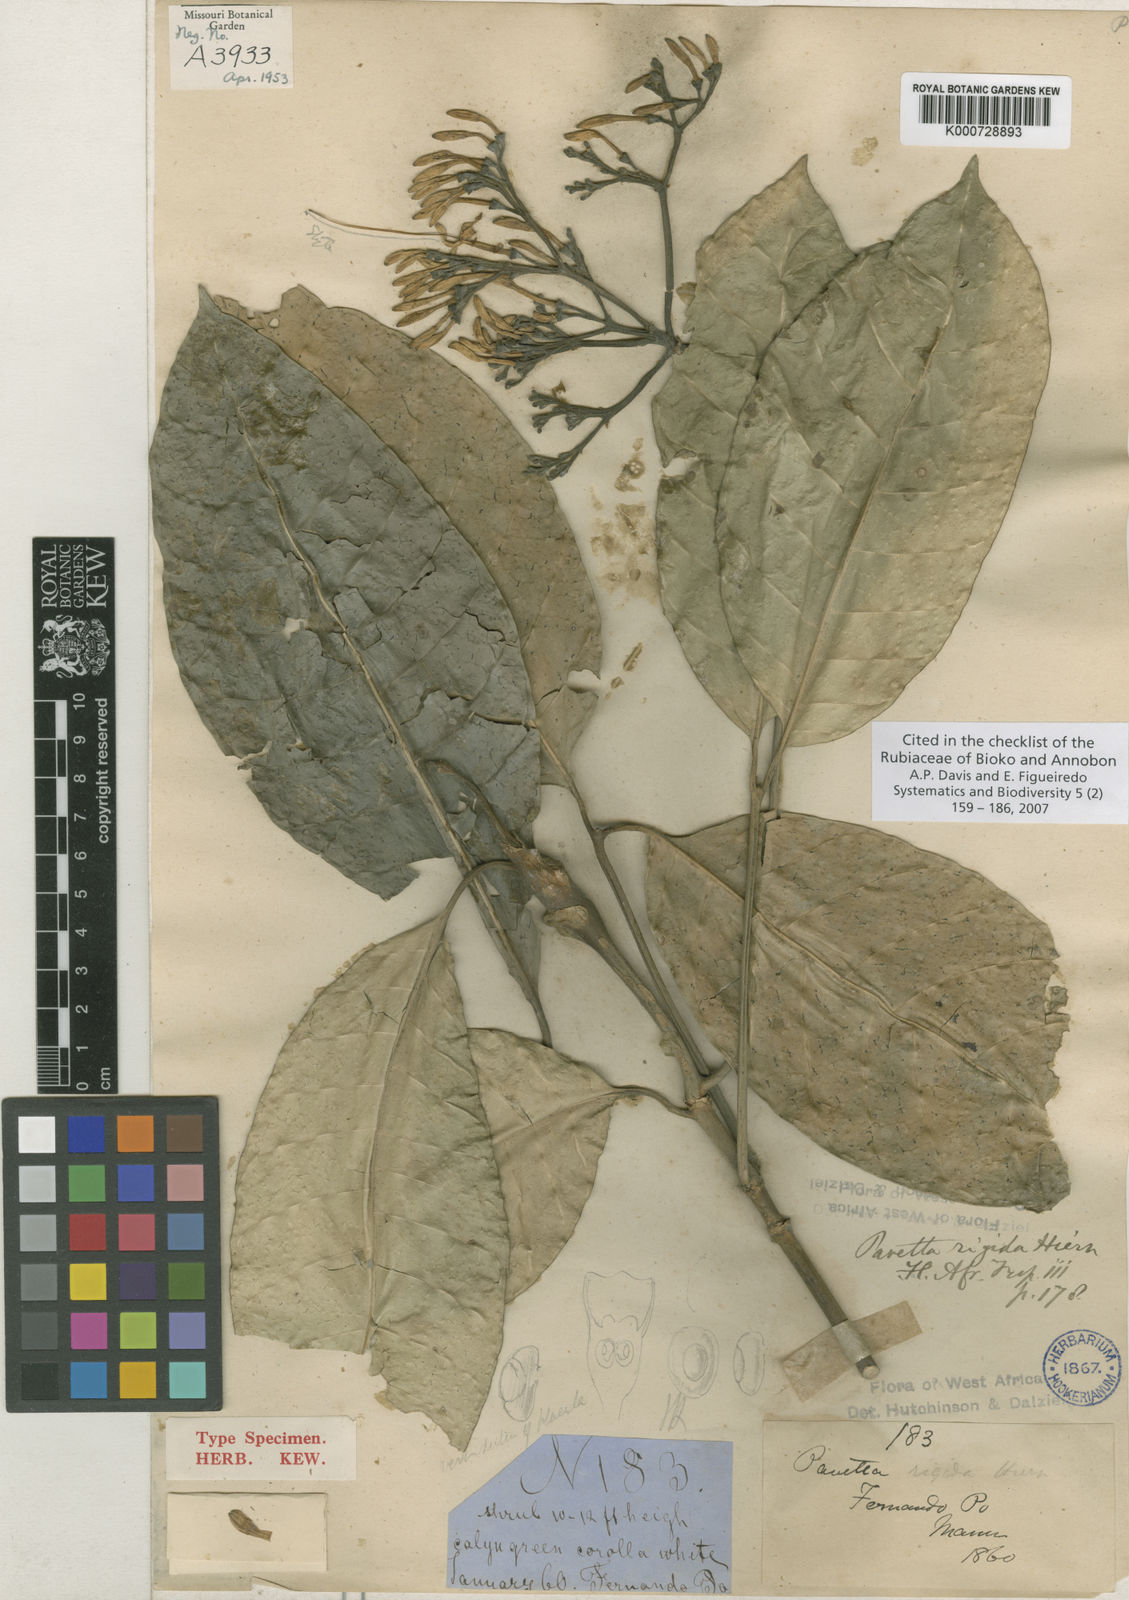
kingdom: Plantae
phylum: Tracheophyta
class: Magnoliopsida
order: Gentianales
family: Rubiaceae
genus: Pavetta
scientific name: Pavetta rigida
